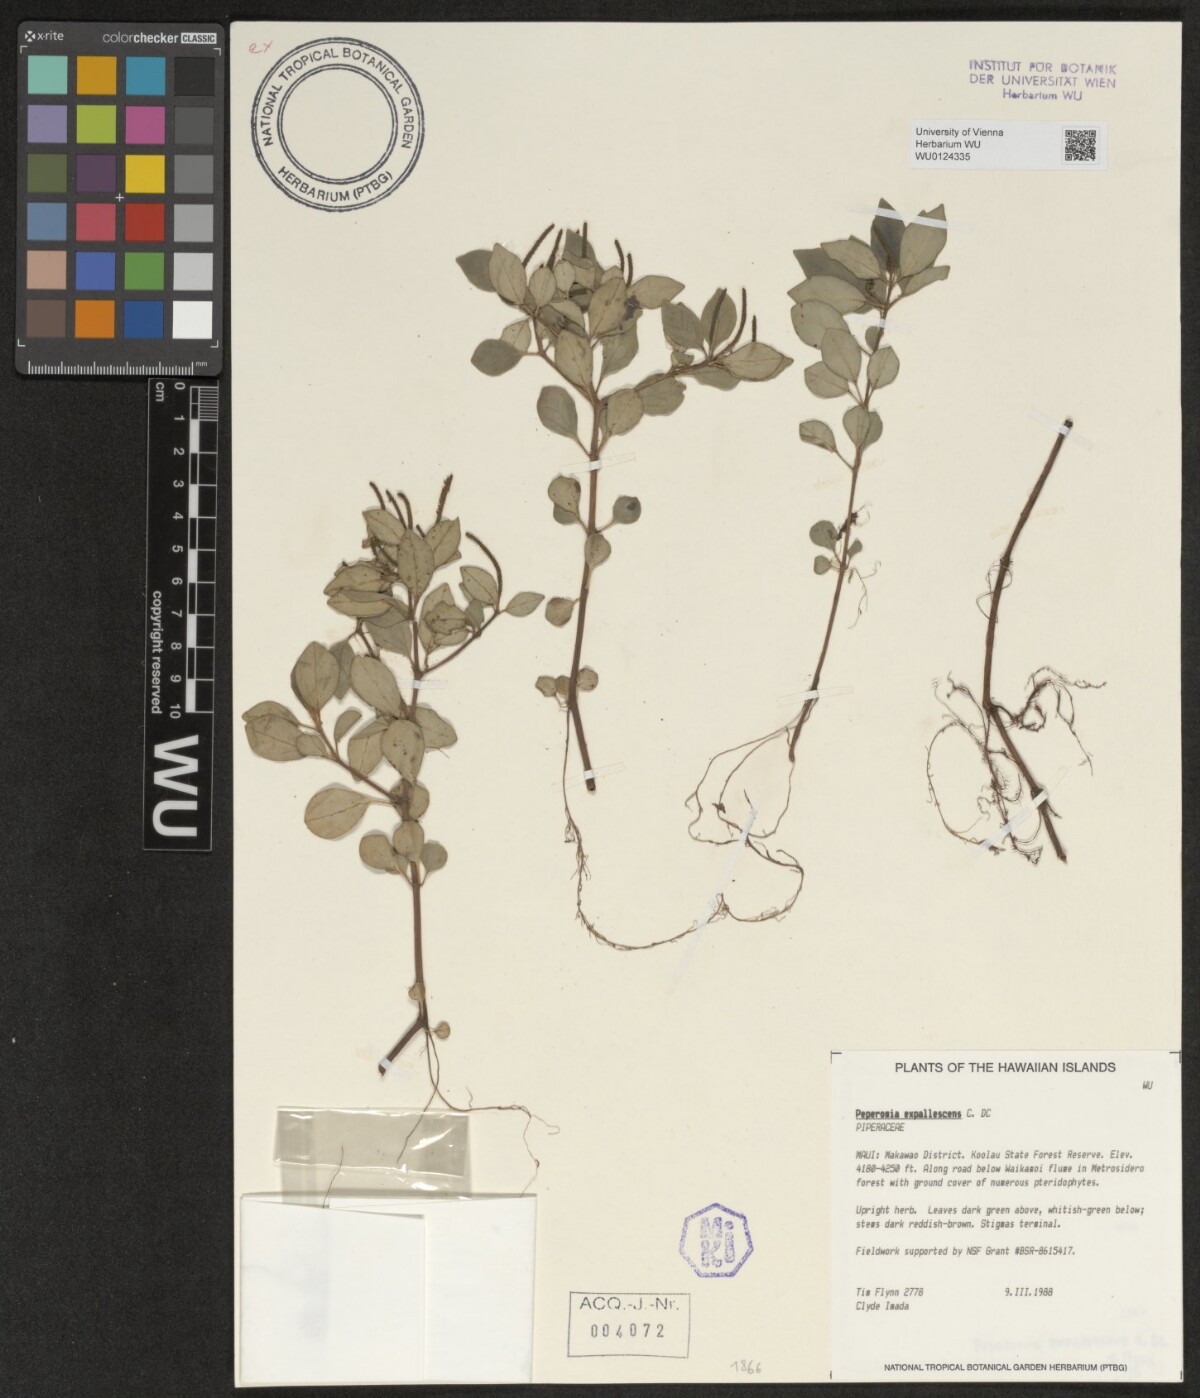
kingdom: Plantae
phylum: Tracheophyta
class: Magnoliopsida
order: Piperales
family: Piperaceae
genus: Peperomia
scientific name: Peperomia expallescens
